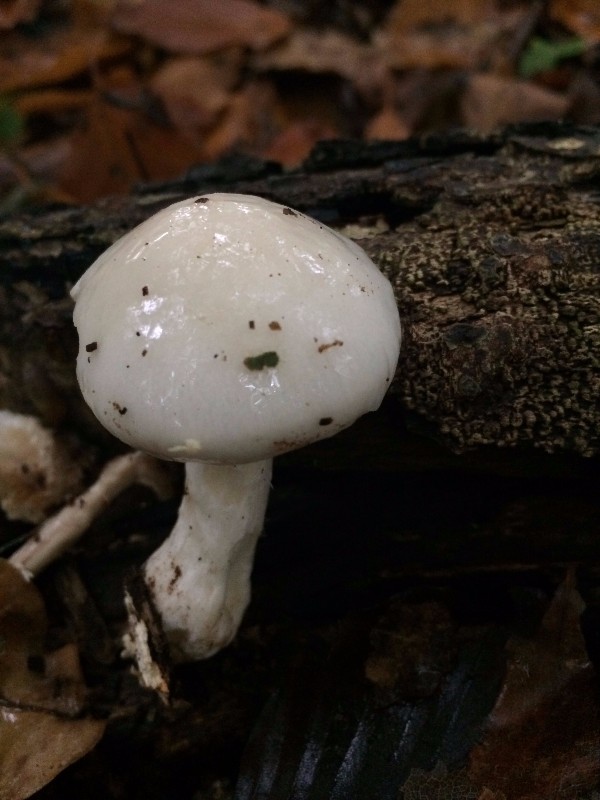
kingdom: Fungi
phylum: Basidiomycota
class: Agaricomycetes
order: Agaricales
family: Physalacriaceae
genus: Mucidula
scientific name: Mucidula mucida
